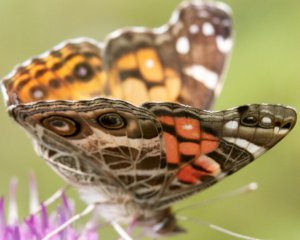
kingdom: Animalia
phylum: Arthropoda
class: Insecta
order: Lepidoptera
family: Nymphalidae
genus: Vanessa
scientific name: Vanessa virginiensis
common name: American Lady
